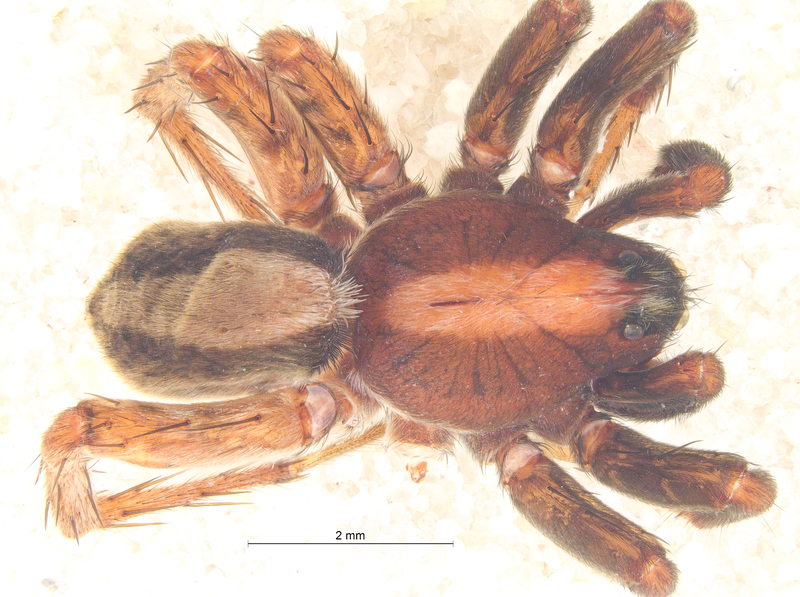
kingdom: Animalia
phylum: Arthropoda
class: Arachnida
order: Araneae
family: Lycosidae
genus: Alopecosa
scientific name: Alopecosa pulverulenta
